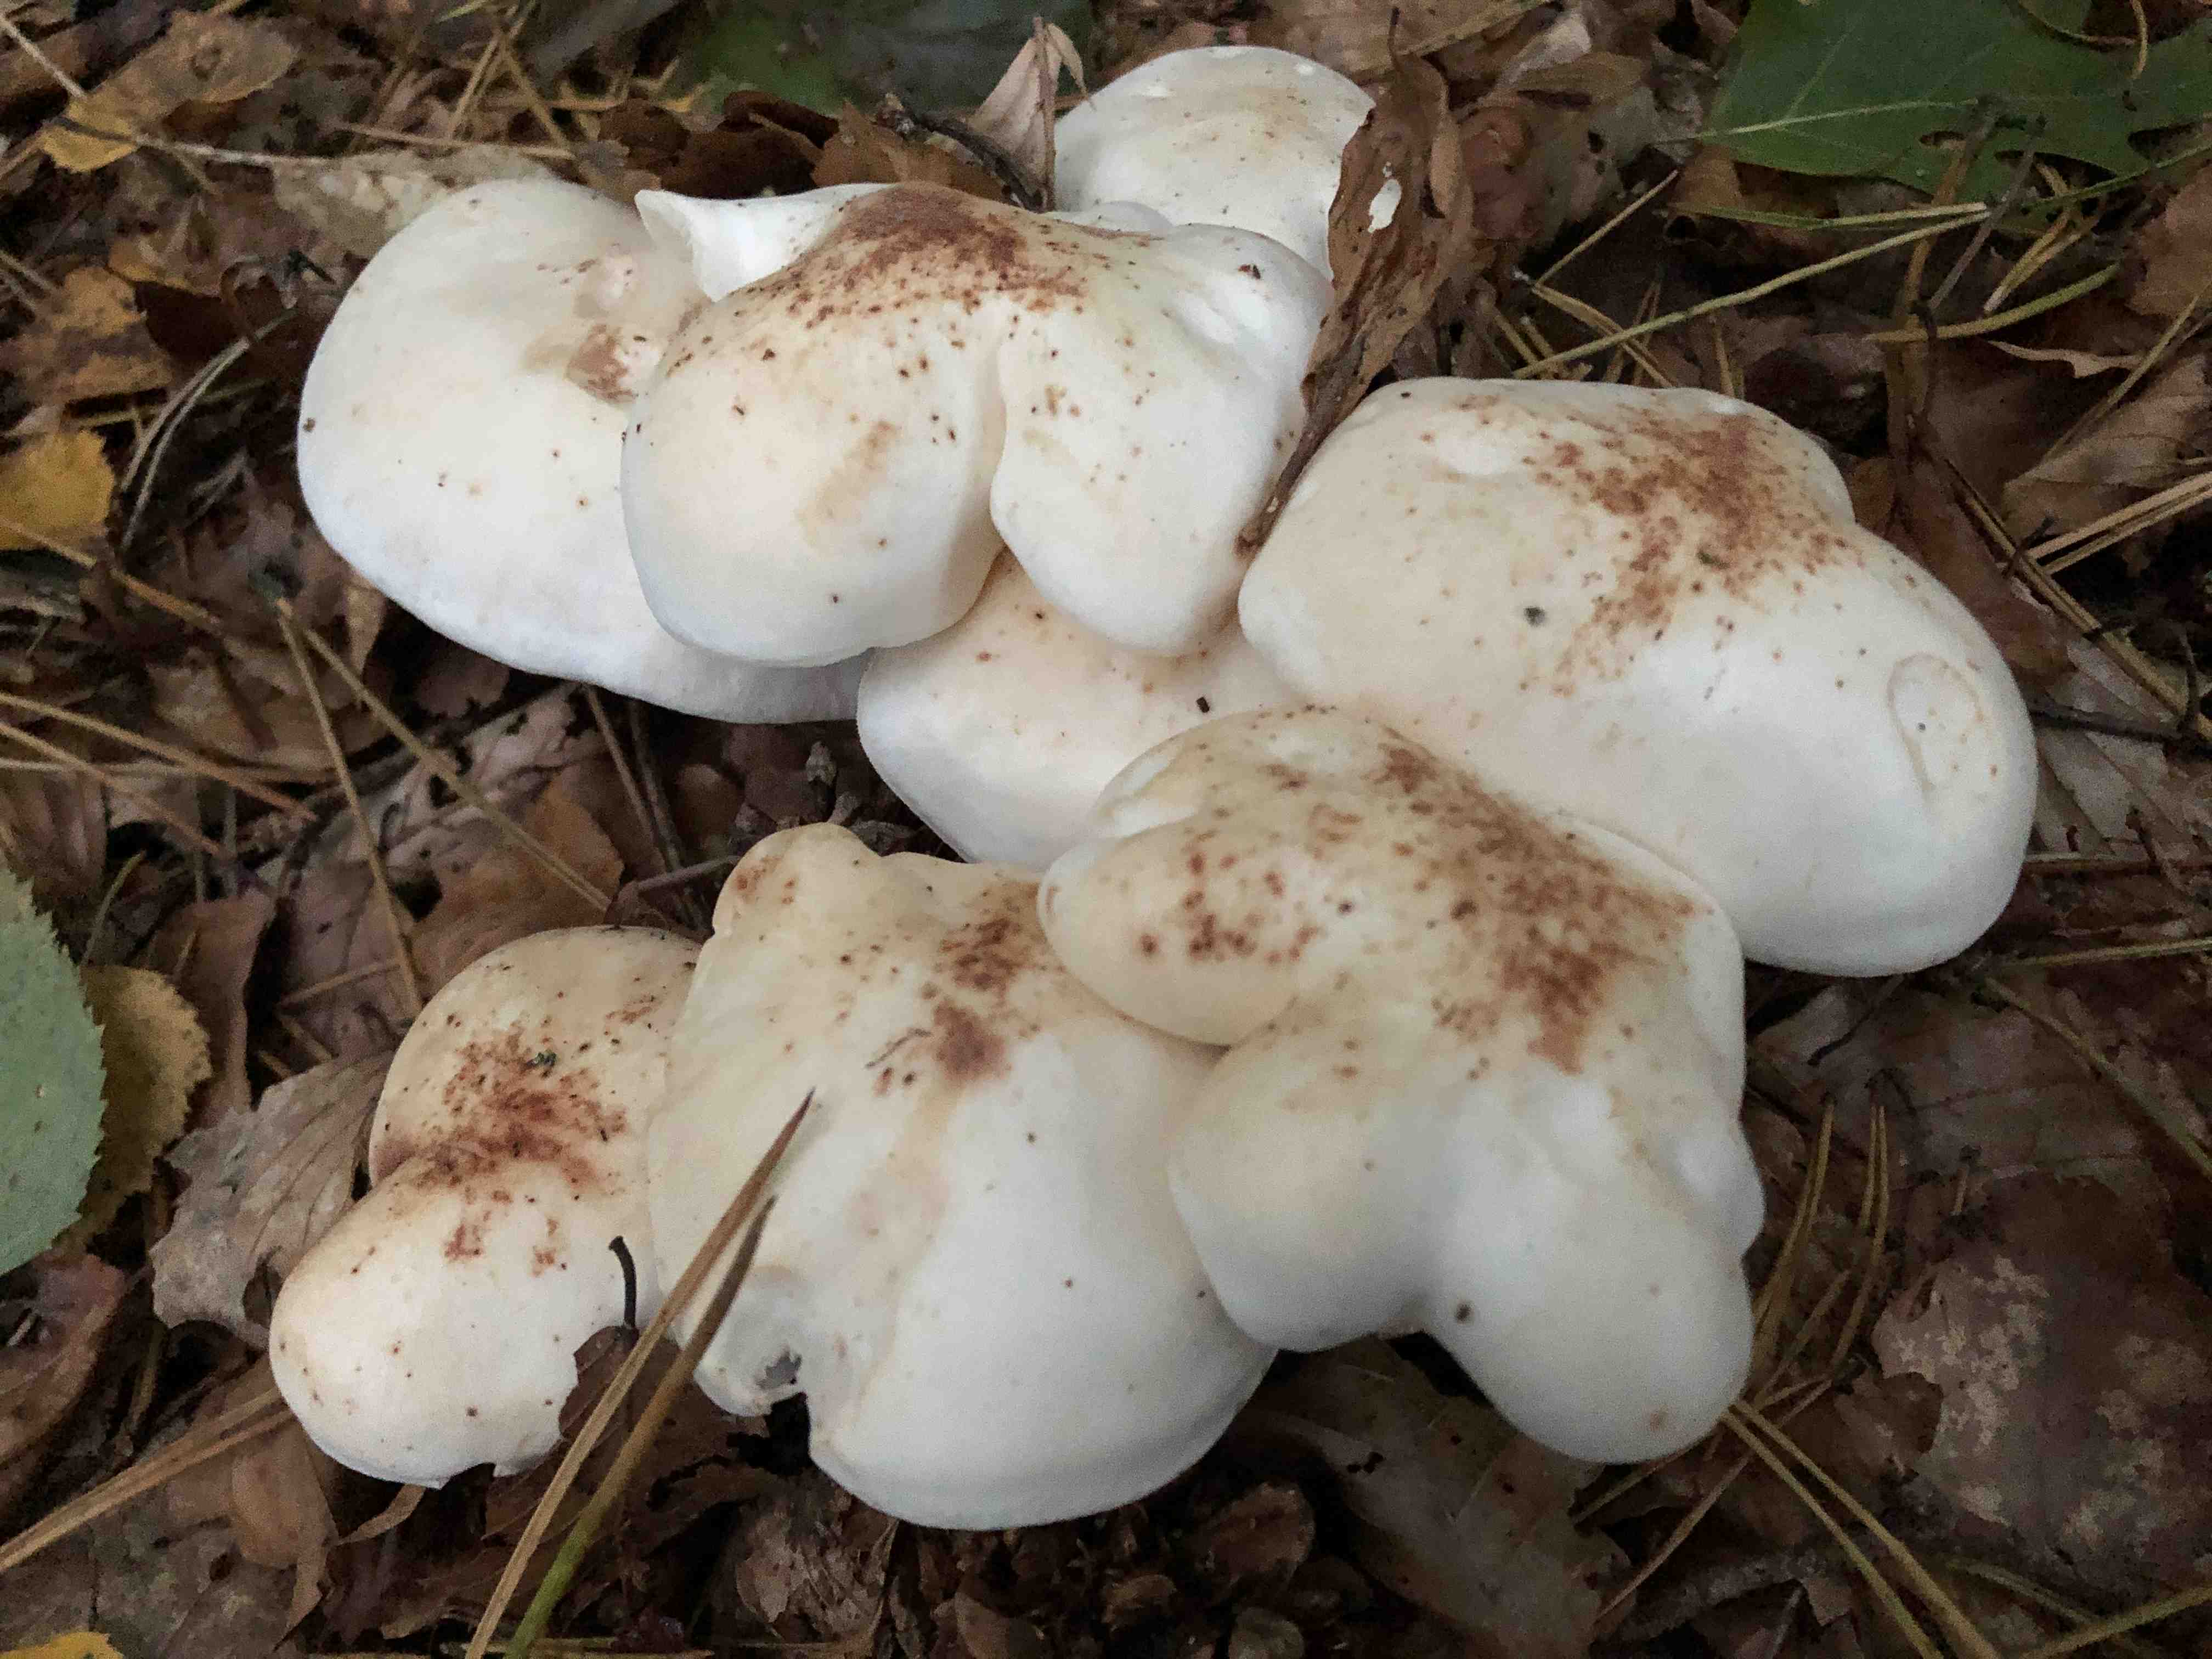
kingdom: Fungi
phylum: Basidiomycota
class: Agaricomycetes
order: Agaricales
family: Omphalotaceae
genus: Rhodocollybia
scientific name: Rhodocollybia maculata
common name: plettet fladhat
